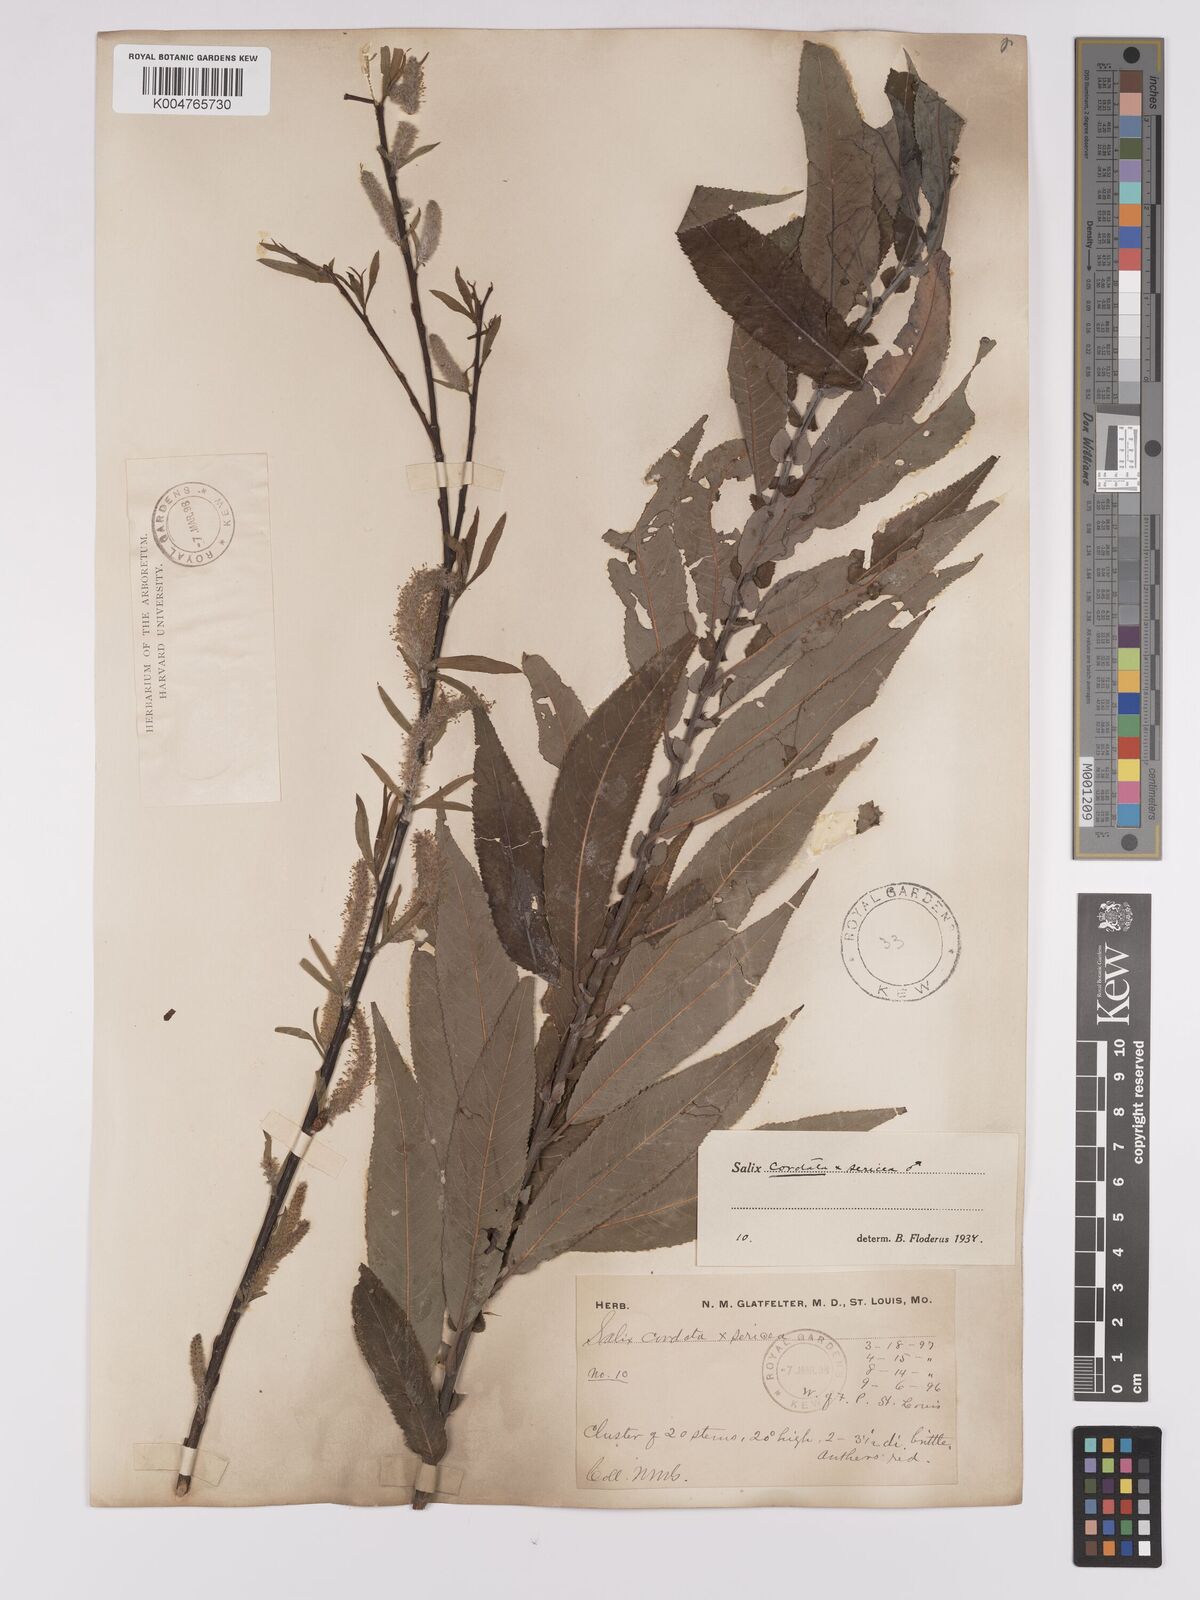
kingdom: Plantae
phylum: Tracheophyta
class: Magnoliopsida
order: Malpighiales
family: Salicaceae
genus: Salix
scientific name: Salix
